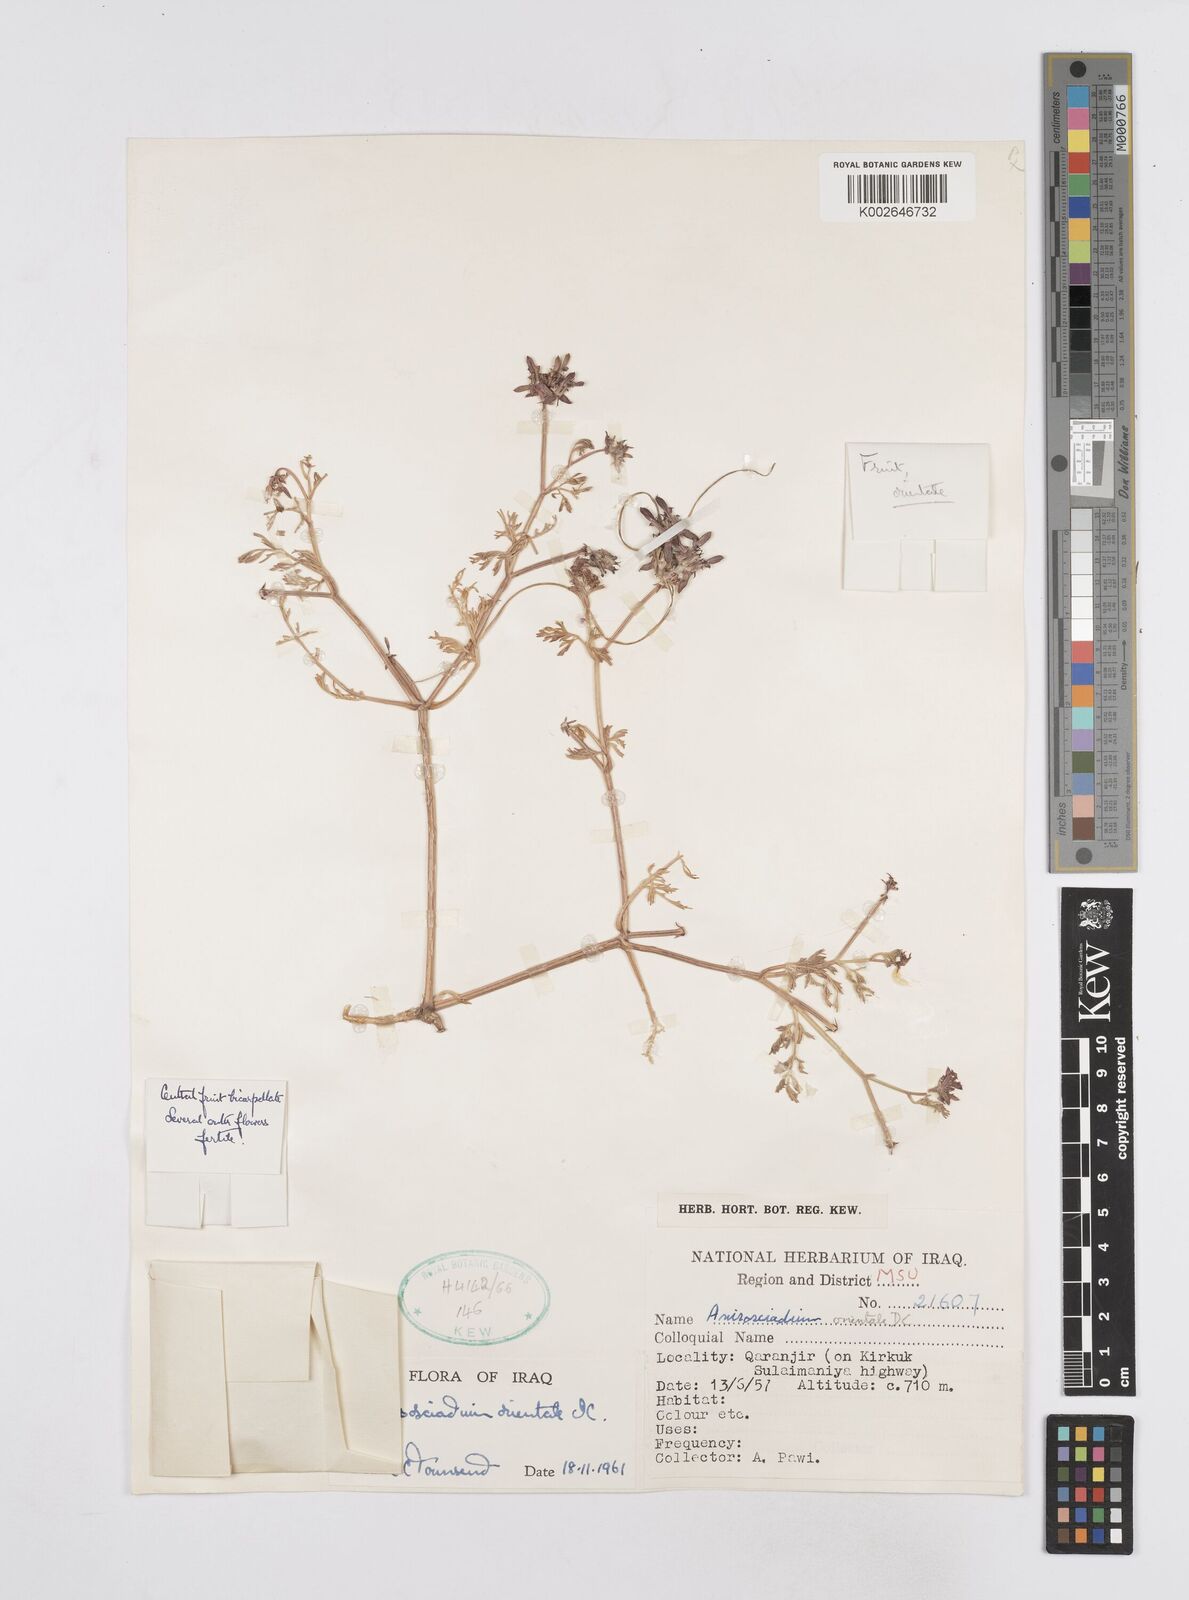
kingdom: Plantae
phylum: Tracheophyta
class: Magnoliopsida
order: Apiales
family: Apiaceae
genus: Anisosciadium
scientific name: Anisosciadium orientale
